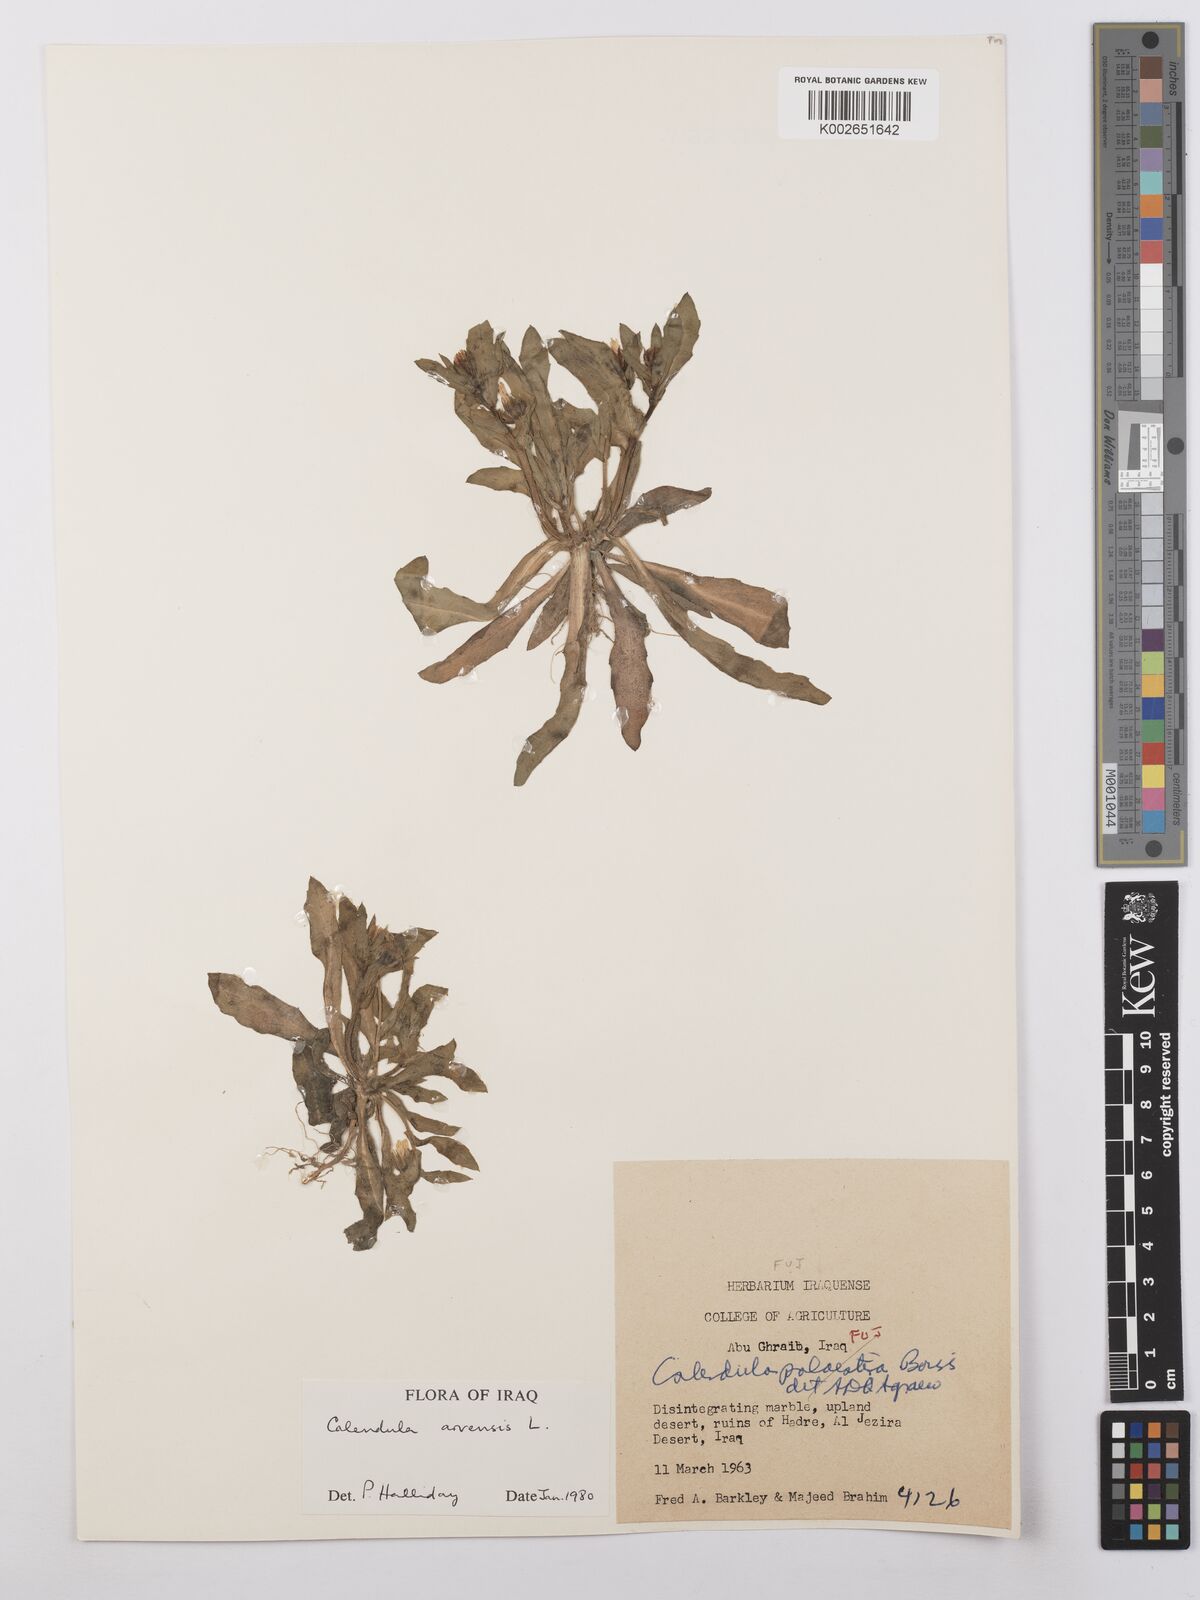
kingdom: Plantae
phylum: Tracheophyta
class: Magnoliopsida
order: Asterales
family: Asteraceae
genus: Calendula
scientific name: Calendula arvensis
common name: Field marigold
